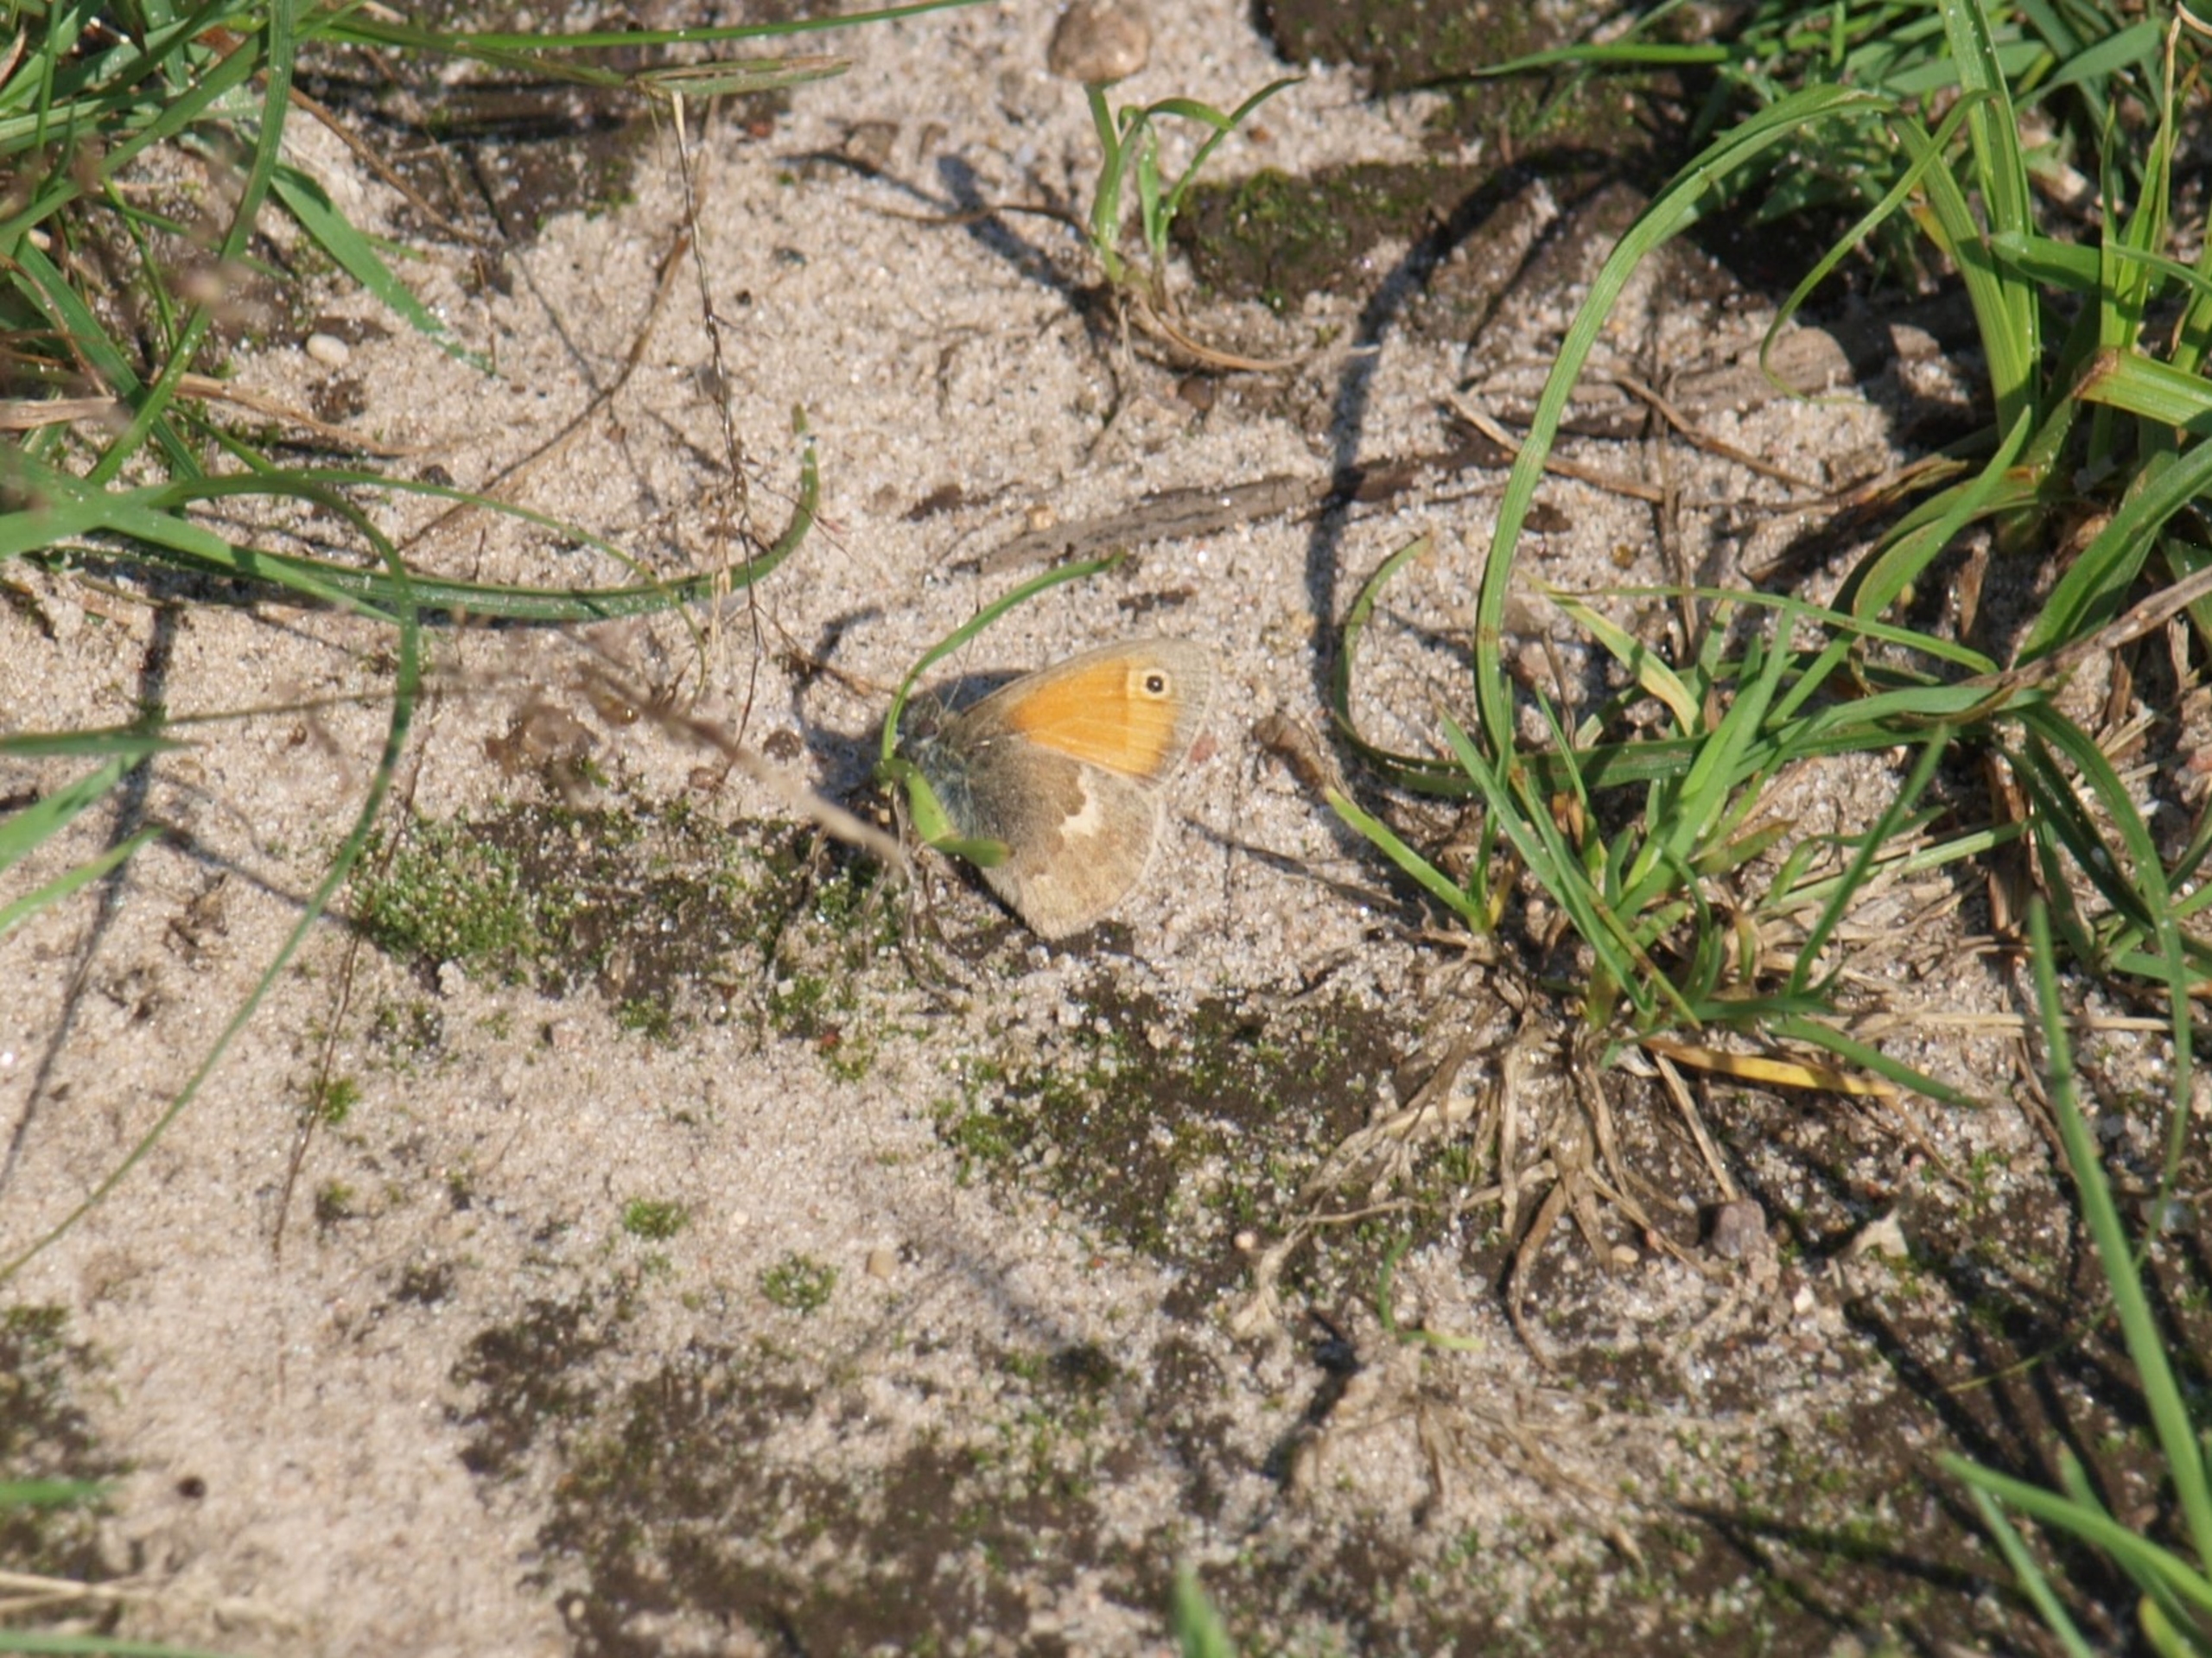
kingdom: Animalia
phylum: Arthropoda
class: Insecta
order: Lepidoptera
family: Nymphalidae
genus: Coenonympha
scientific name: Coenonympha pamphilus
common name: Okkergul randøje
